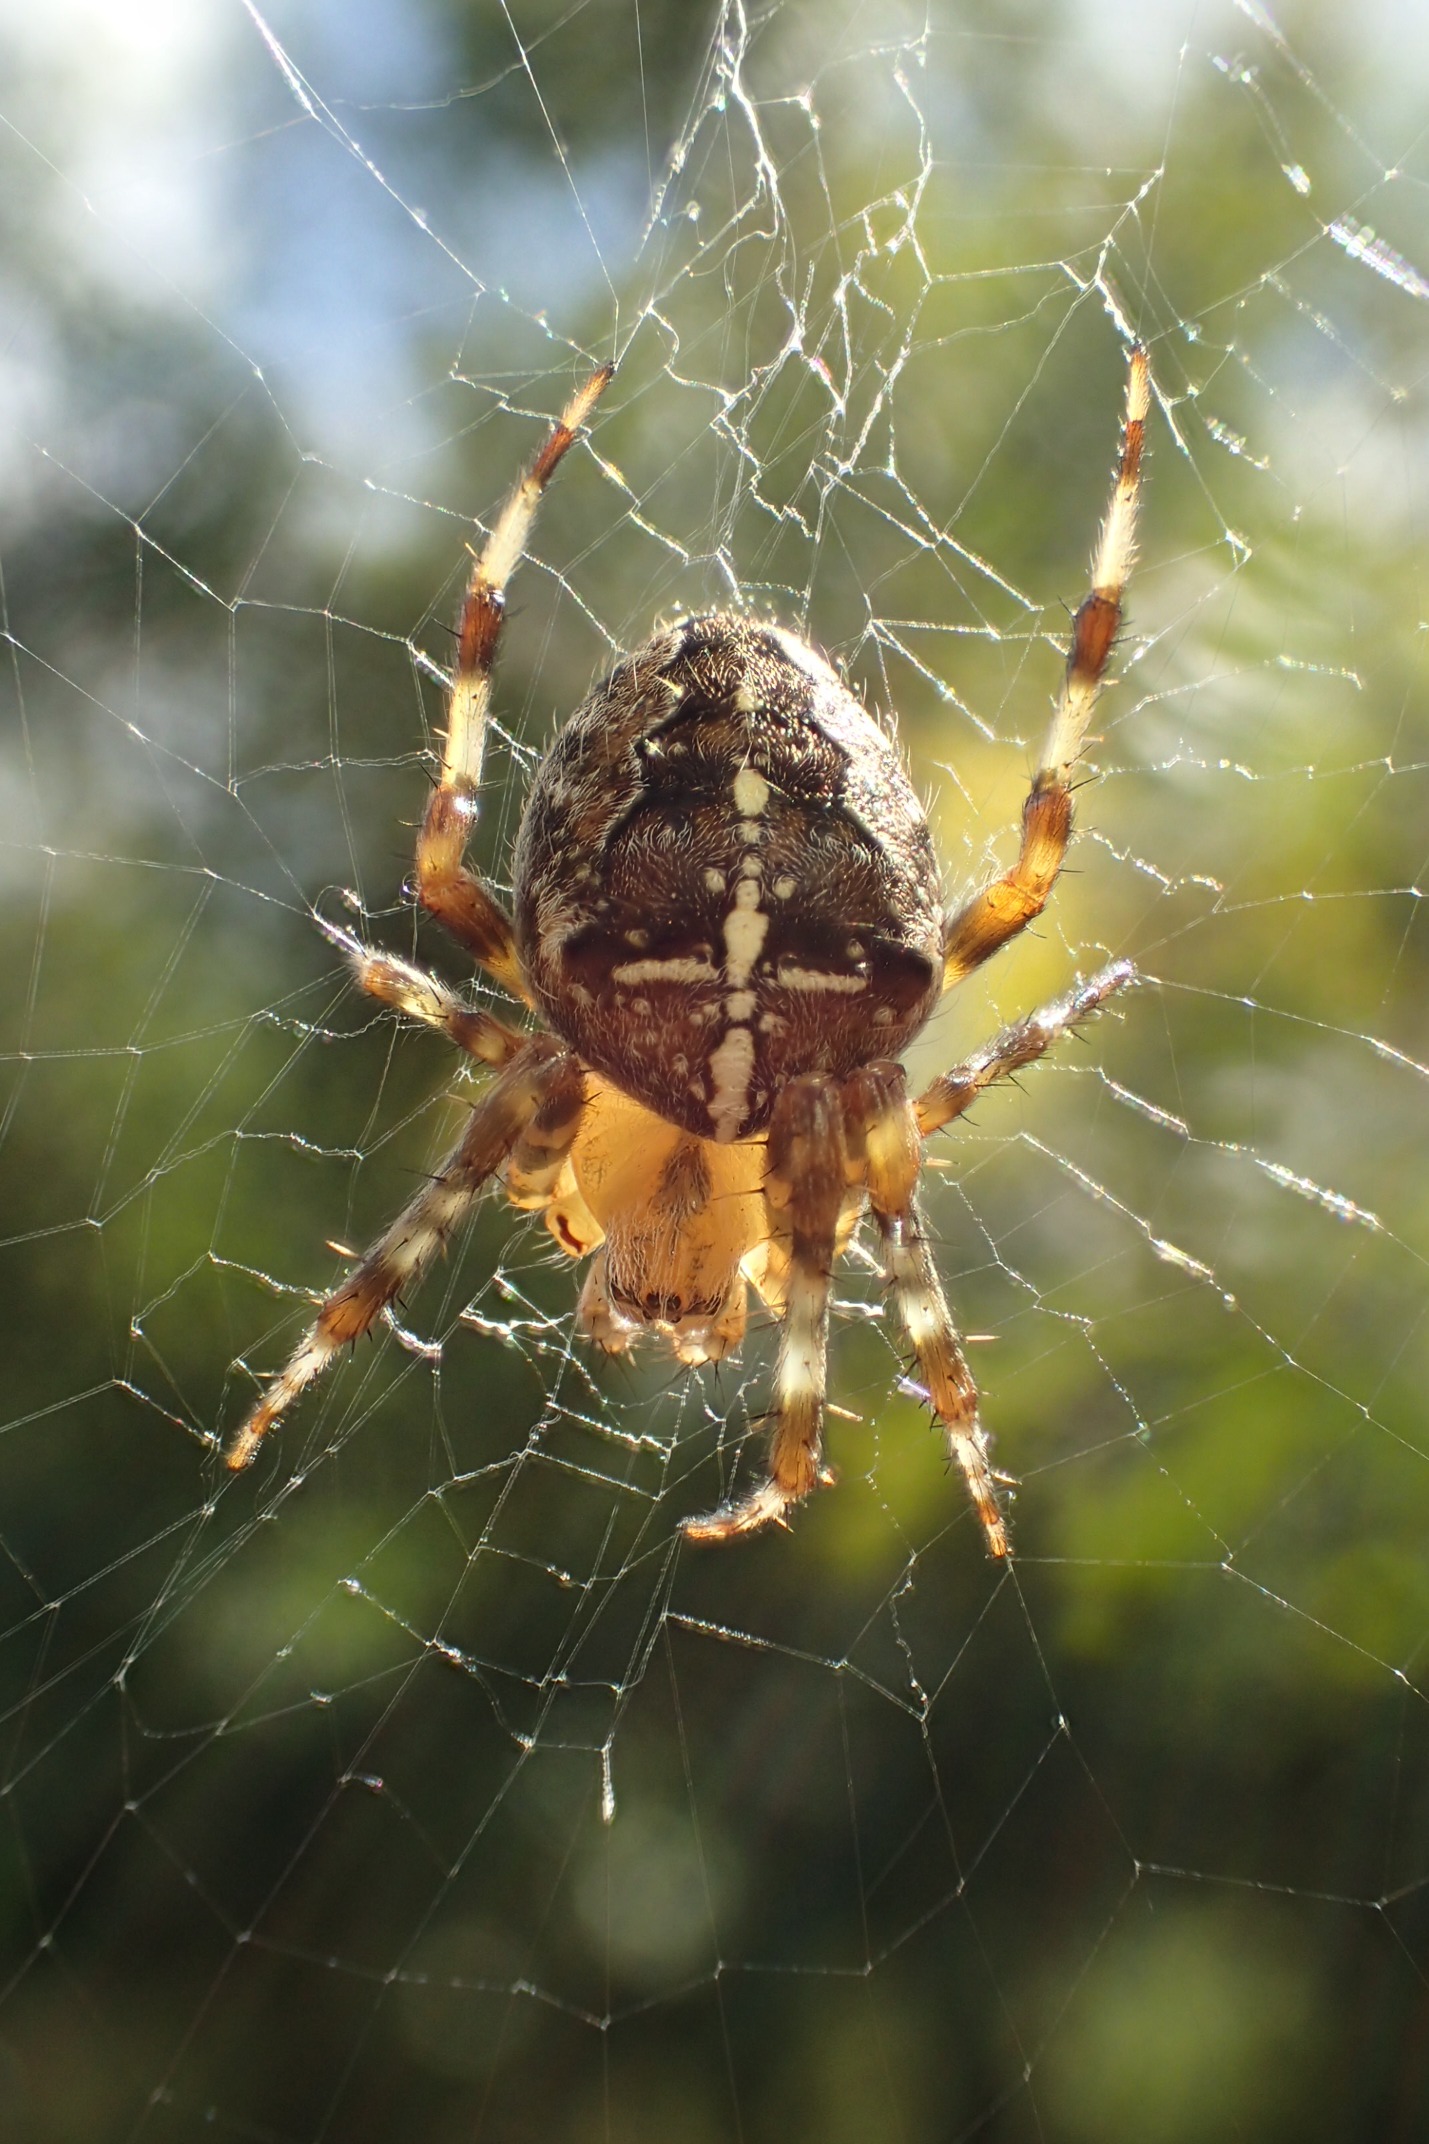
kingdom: Animalia
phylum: Arthropoda
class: Arachnida
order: Araneae
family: Araneidae
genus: Araneus
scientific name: Araneus diadematus
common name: Korsedderkop
